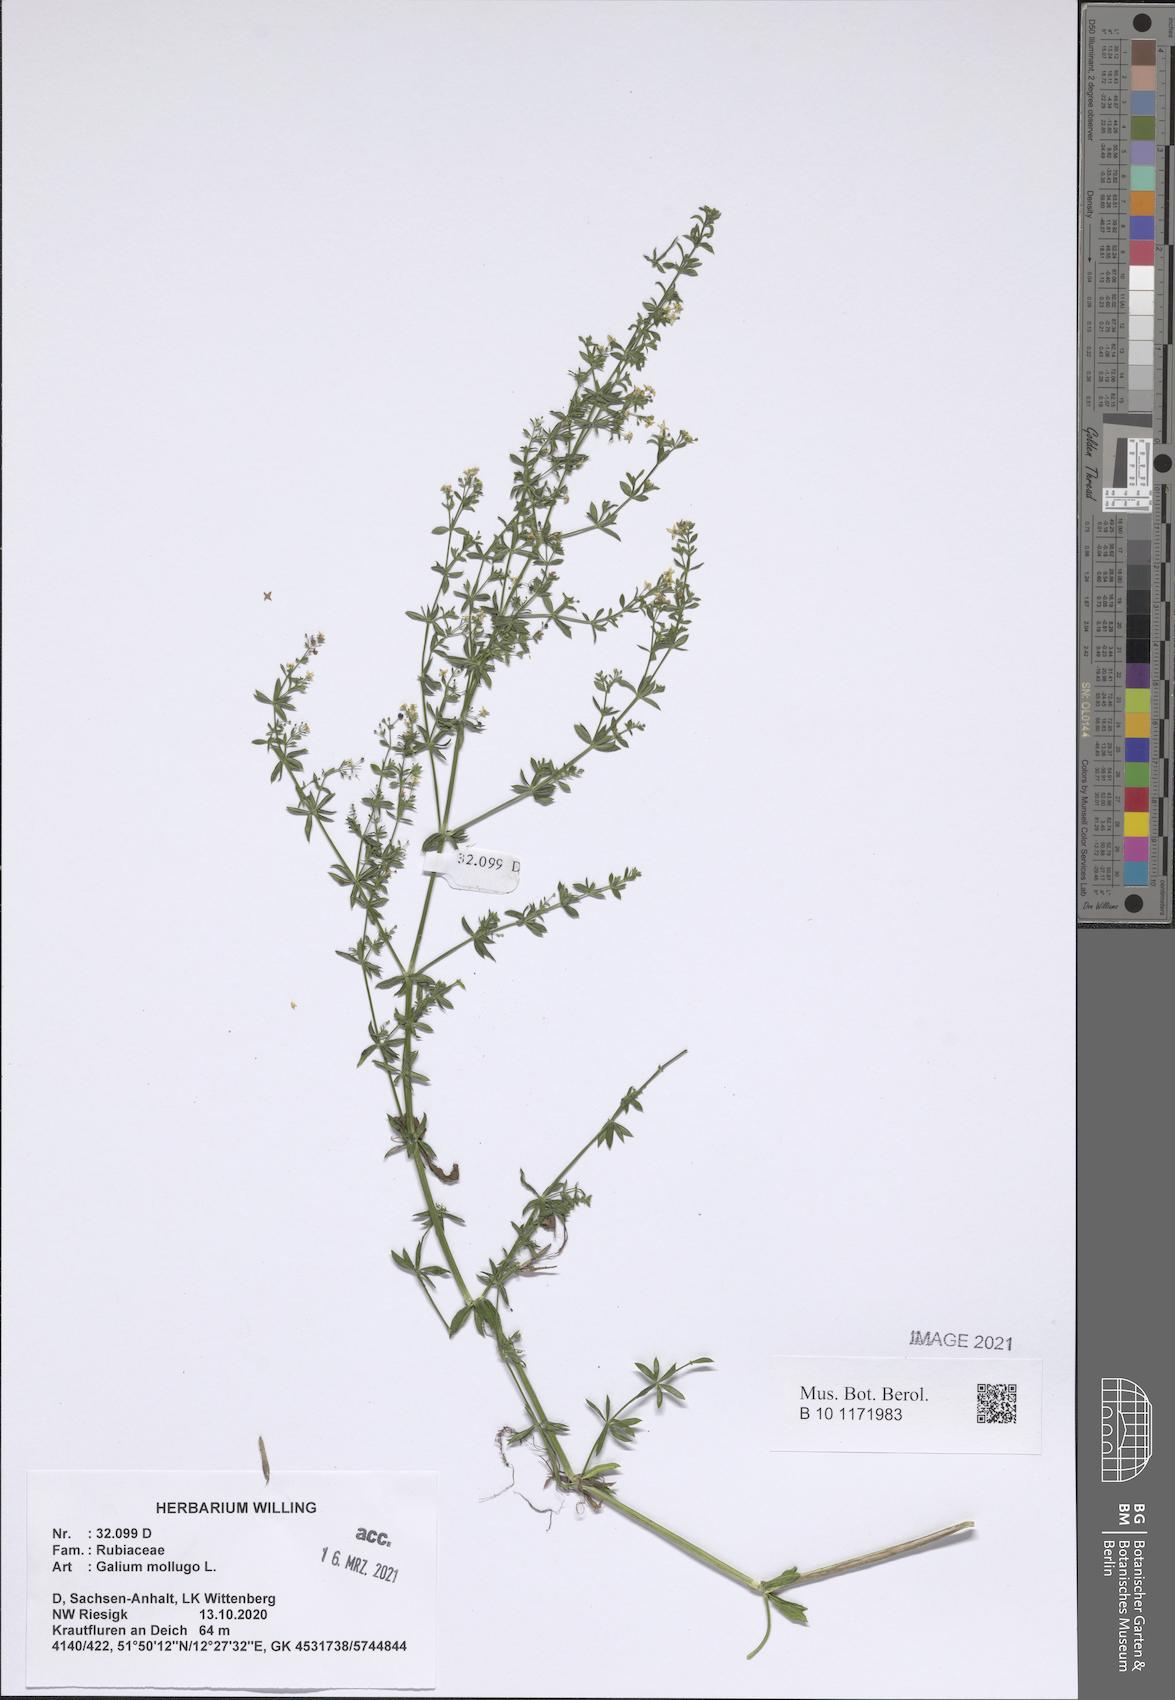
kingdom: Plantae
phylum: Tracheophyta
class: Magnoliopsida
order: Gentianales
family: Rubiaceae
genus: Galium
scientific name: Galium mollugo
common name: Hedge bedstraw
